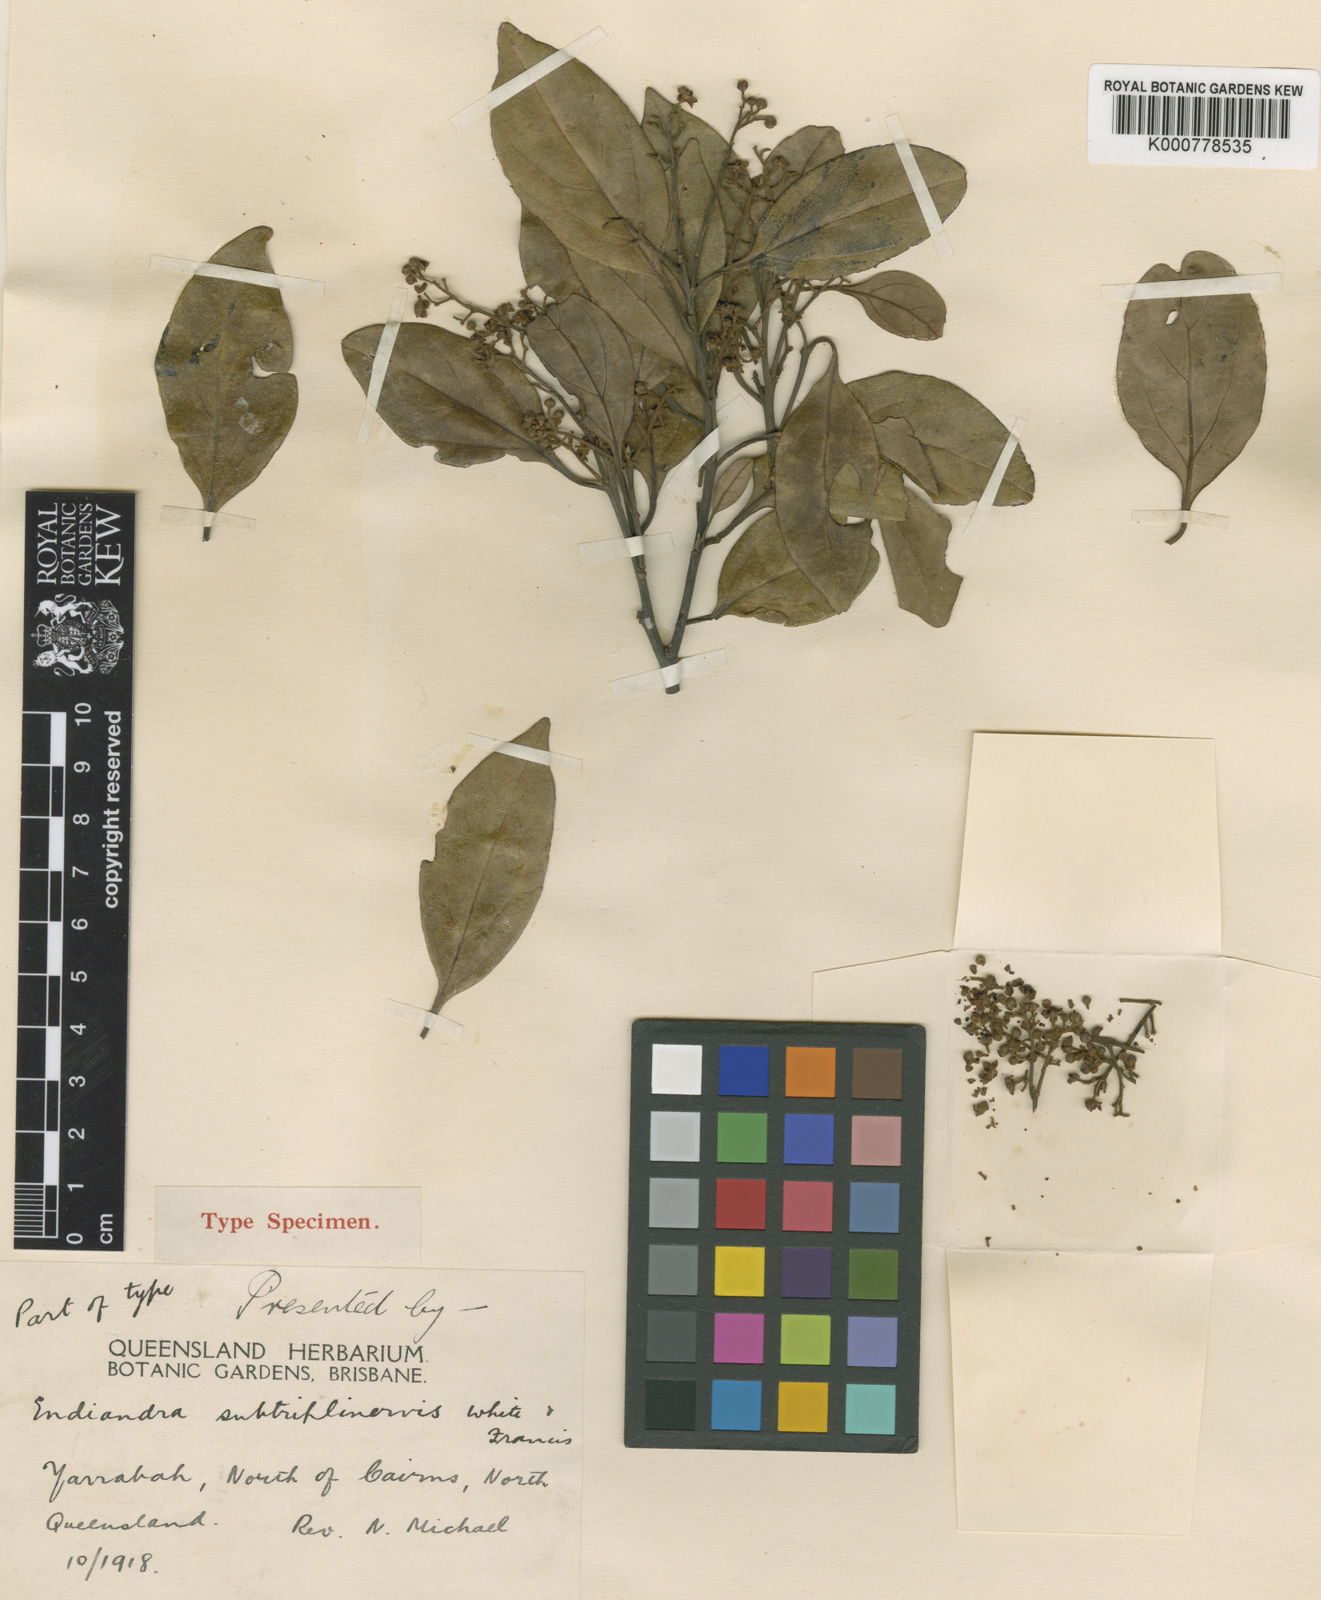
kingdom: Plantae
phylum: Tracheophyta
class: Magnoliopsida
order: Laurales
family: Lauraceae
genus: Endiandra
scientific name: Endiandra acuminata
